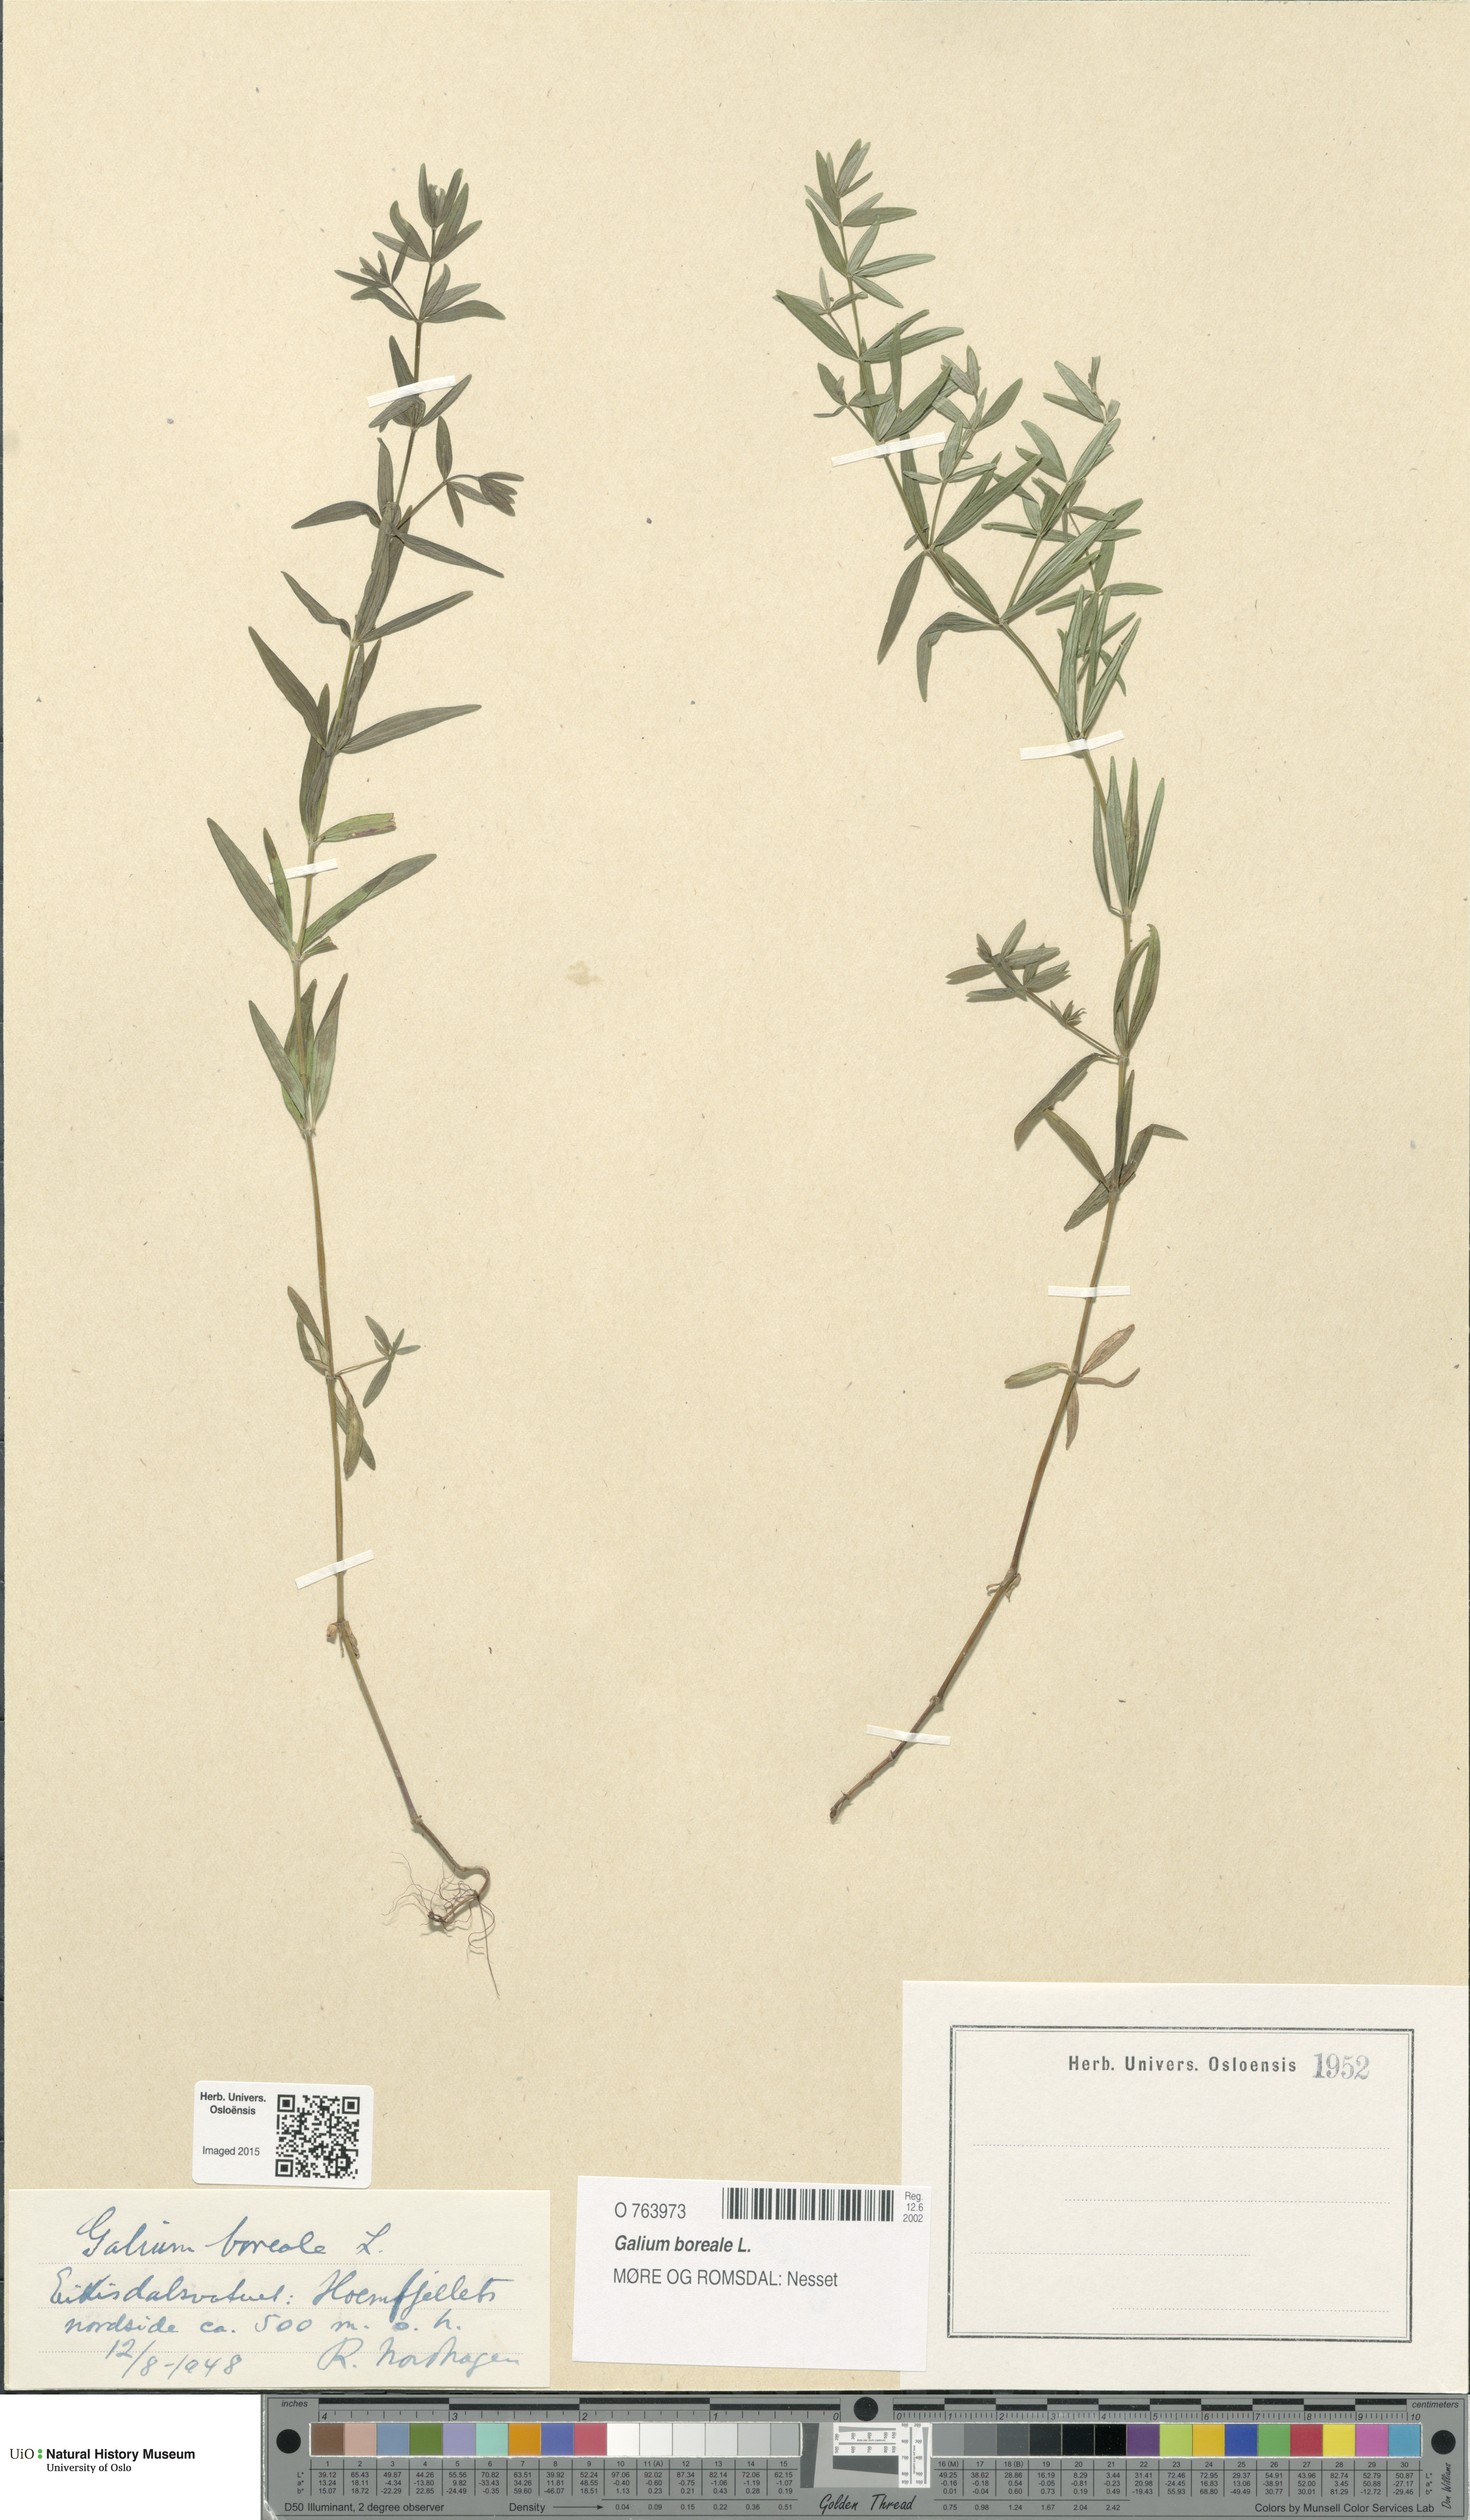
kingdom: Plantae
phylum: Tracheophyta
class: Magnoliopsida
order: Gentianales
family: Rubiaceae
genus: Galium
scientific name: Galium boreale
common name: Northern bedstraw
